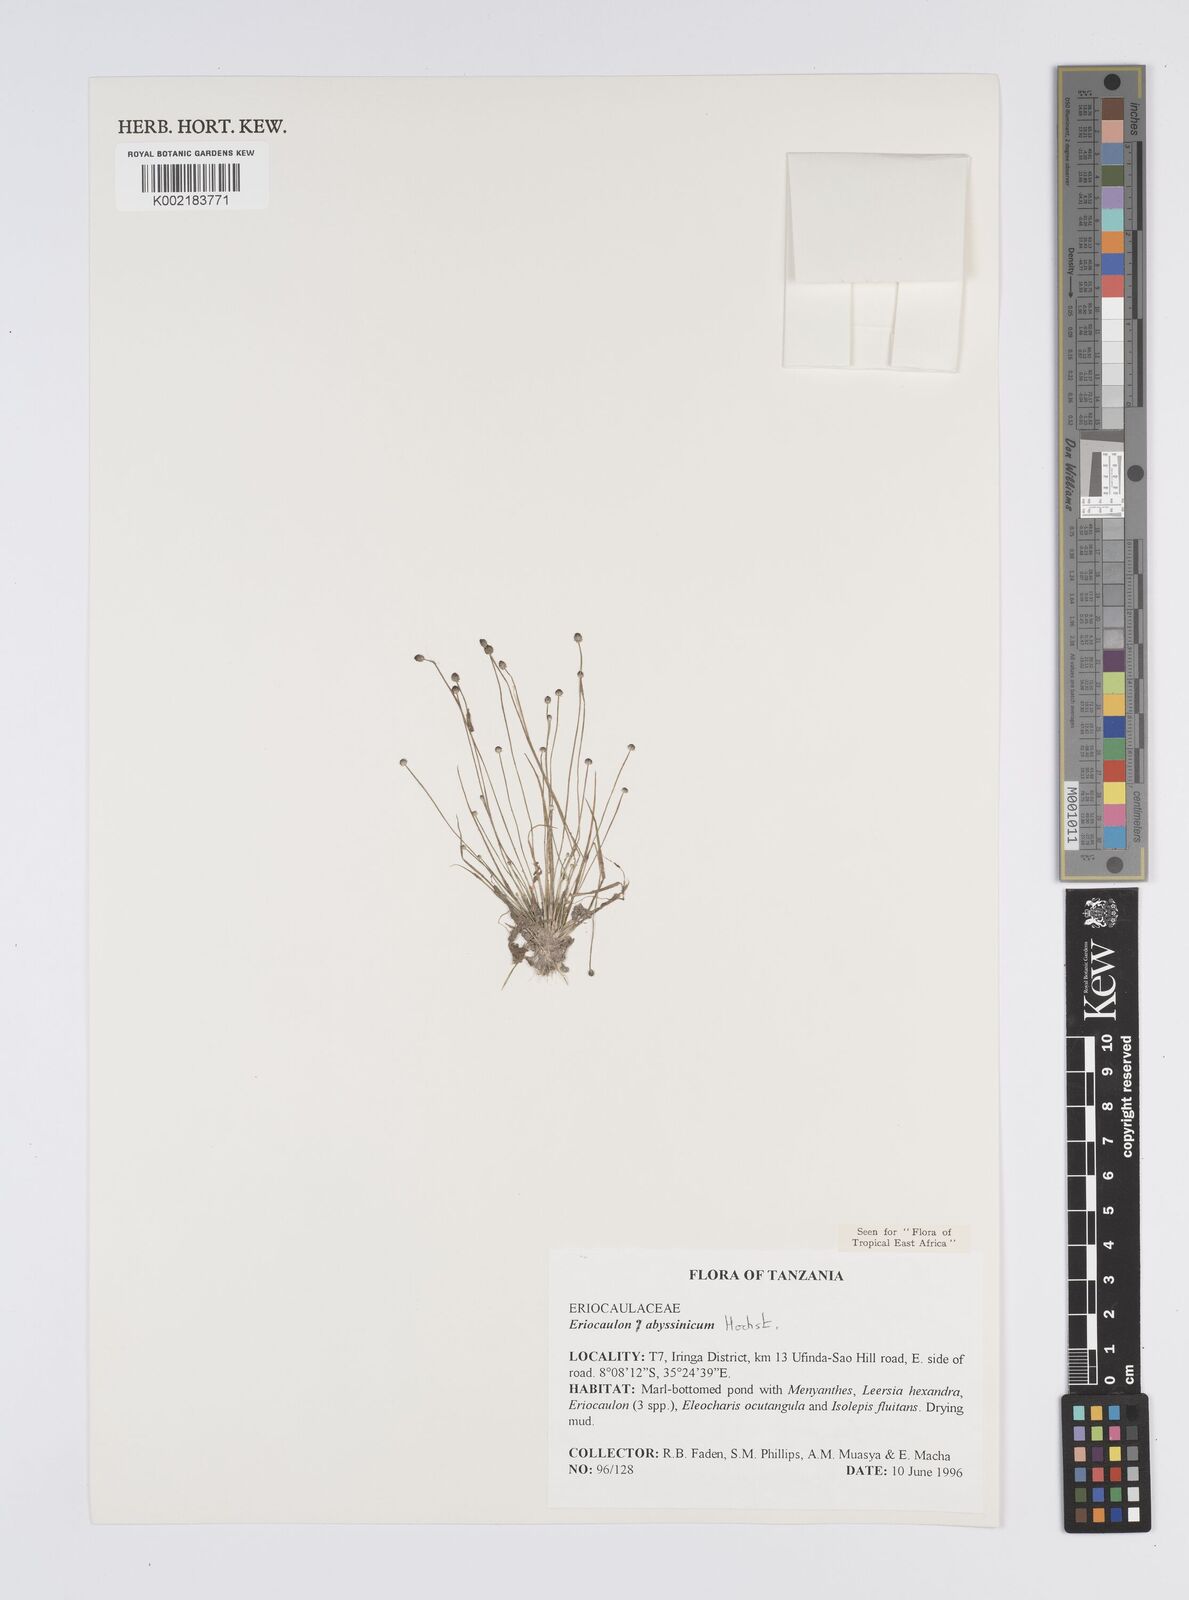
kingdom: Plantae
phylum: Tracheophyta
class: Liliopsida
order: Poales
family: Eriocaulaceae
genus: Eriocaulon
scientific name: Eriocaulon abyssinicum
